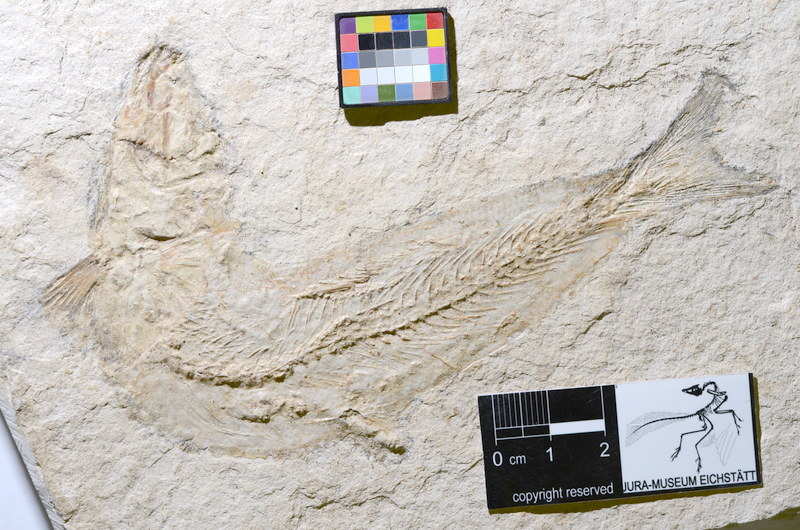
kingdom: Animalia
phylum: Chordata
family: Ascalaboidae
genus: Tharsis
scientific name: Tharsis
